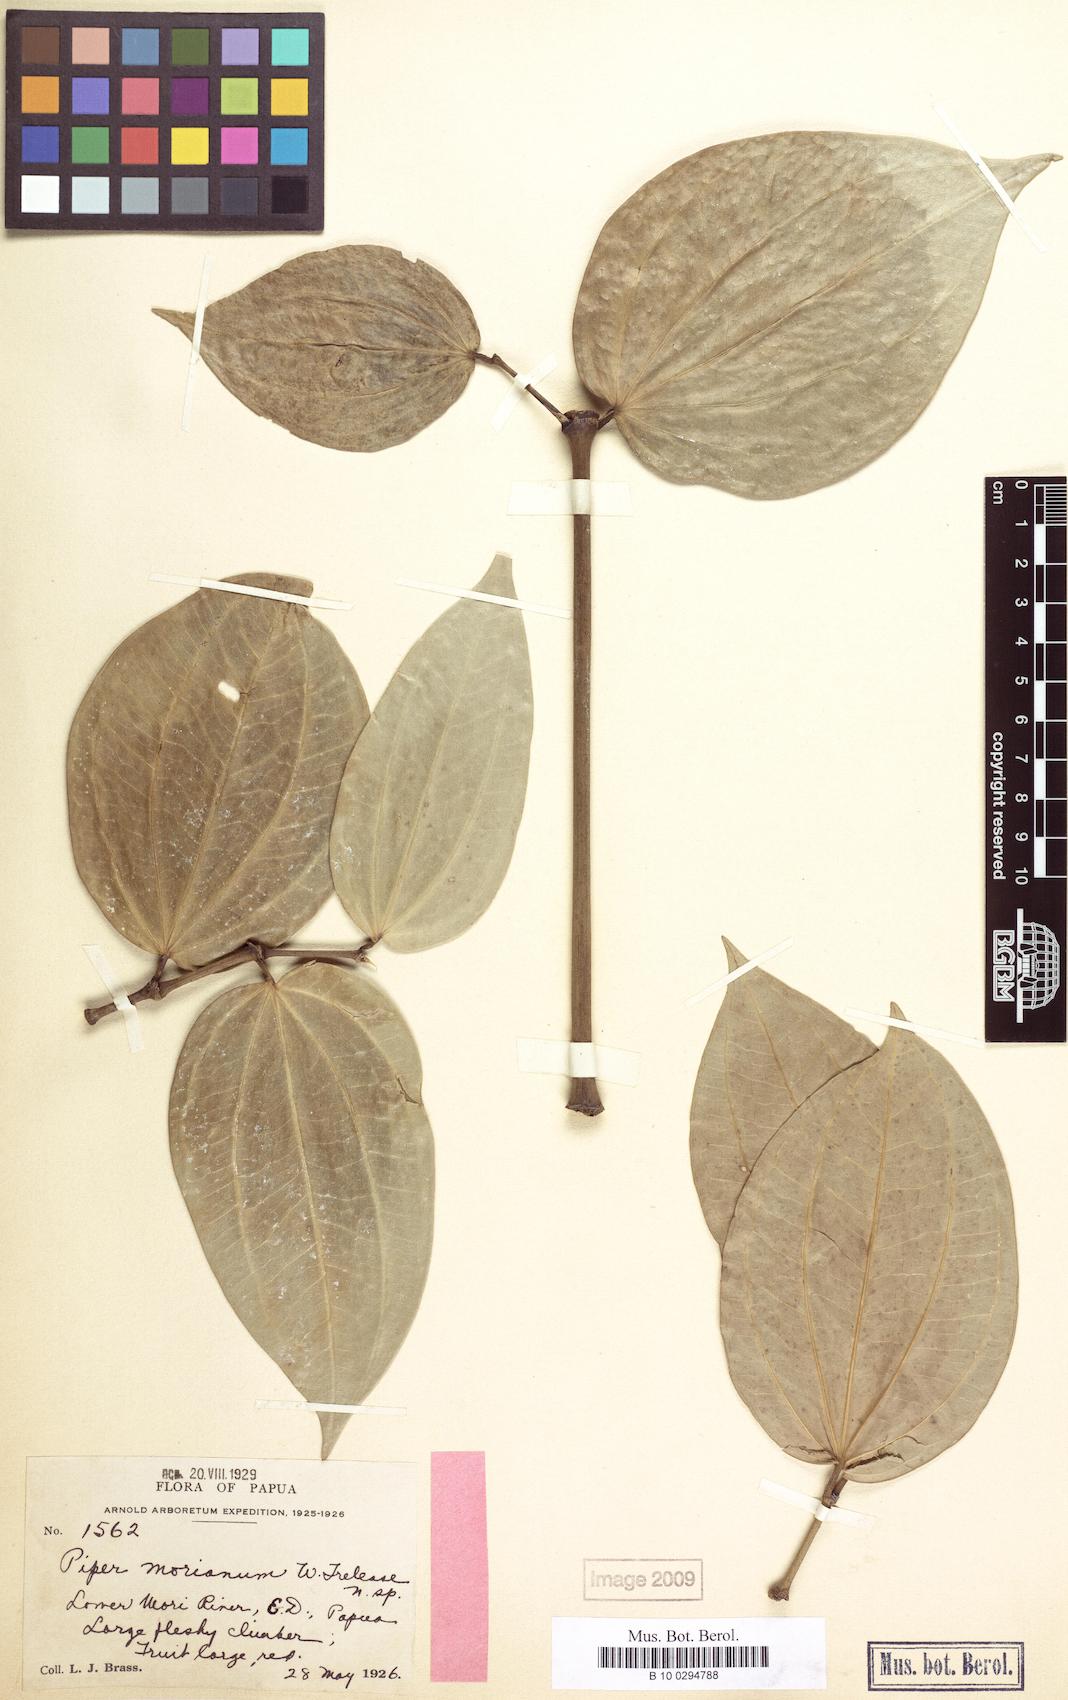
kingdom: Plantae
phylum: Tracheophyta
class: Magnoliopsida
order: Piperales
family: Piperaceae
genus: Piper
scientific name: Piper macropiper
